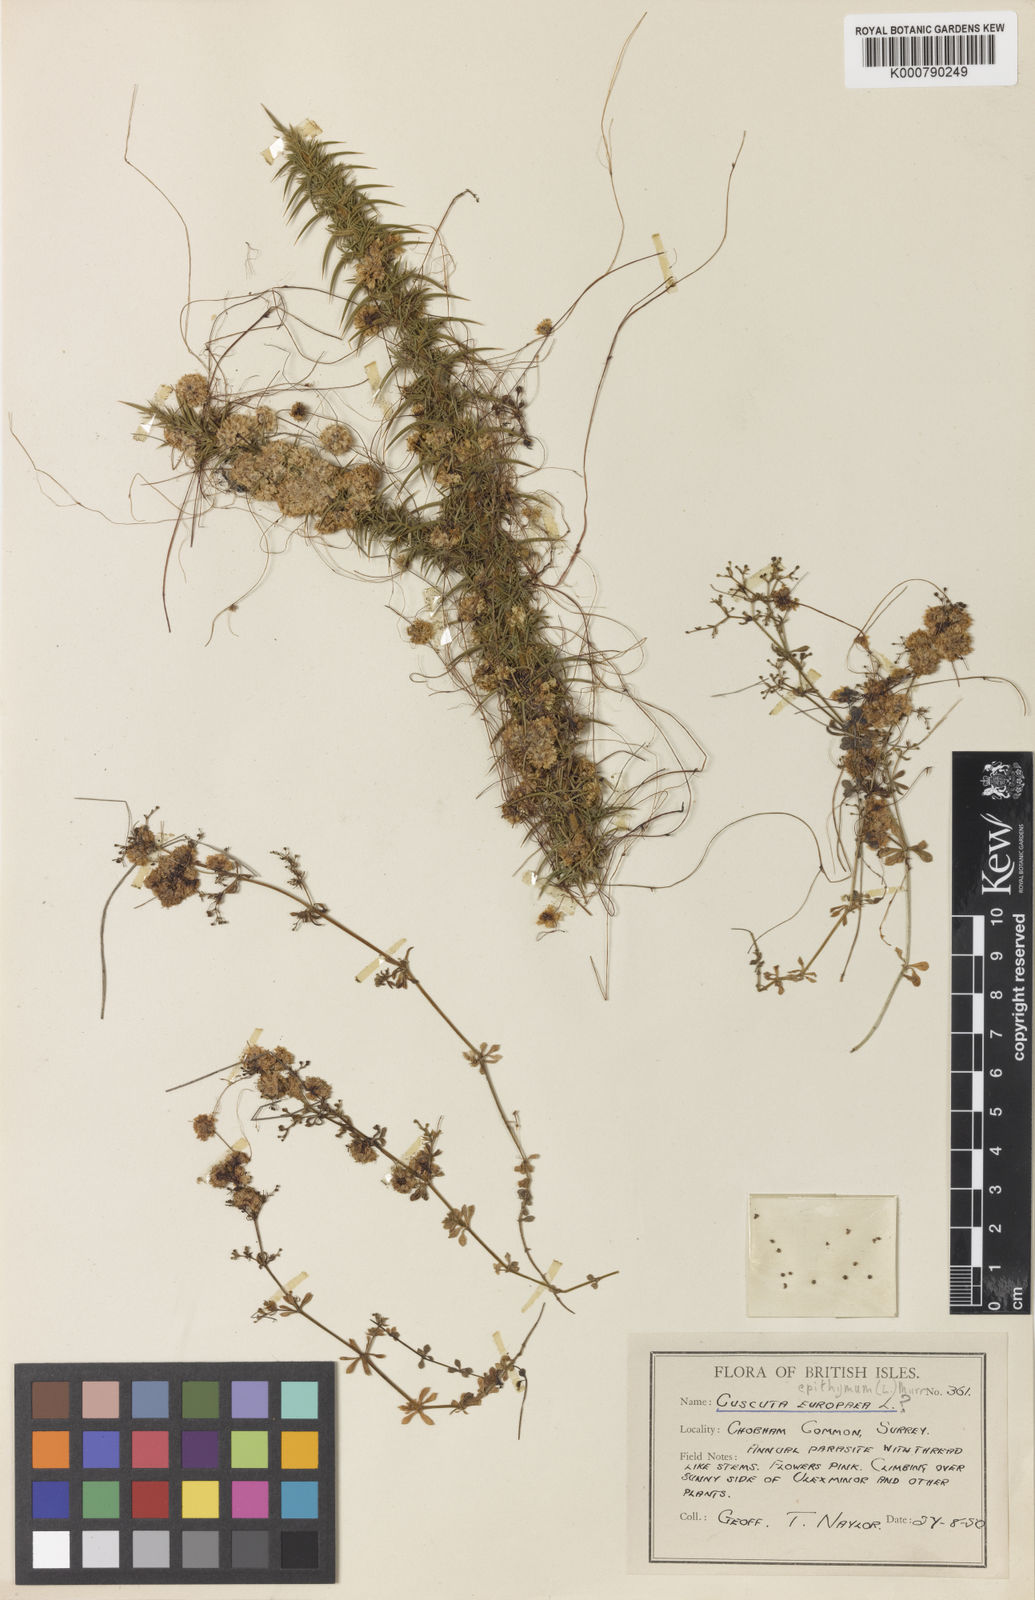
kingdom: Plantae
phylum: Tracheophyta
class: Magnoliopsida
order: Solanales
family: Convolvulaceae
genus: Cuscuta
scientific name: Cuscuta epithymum
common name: Clover dodder
